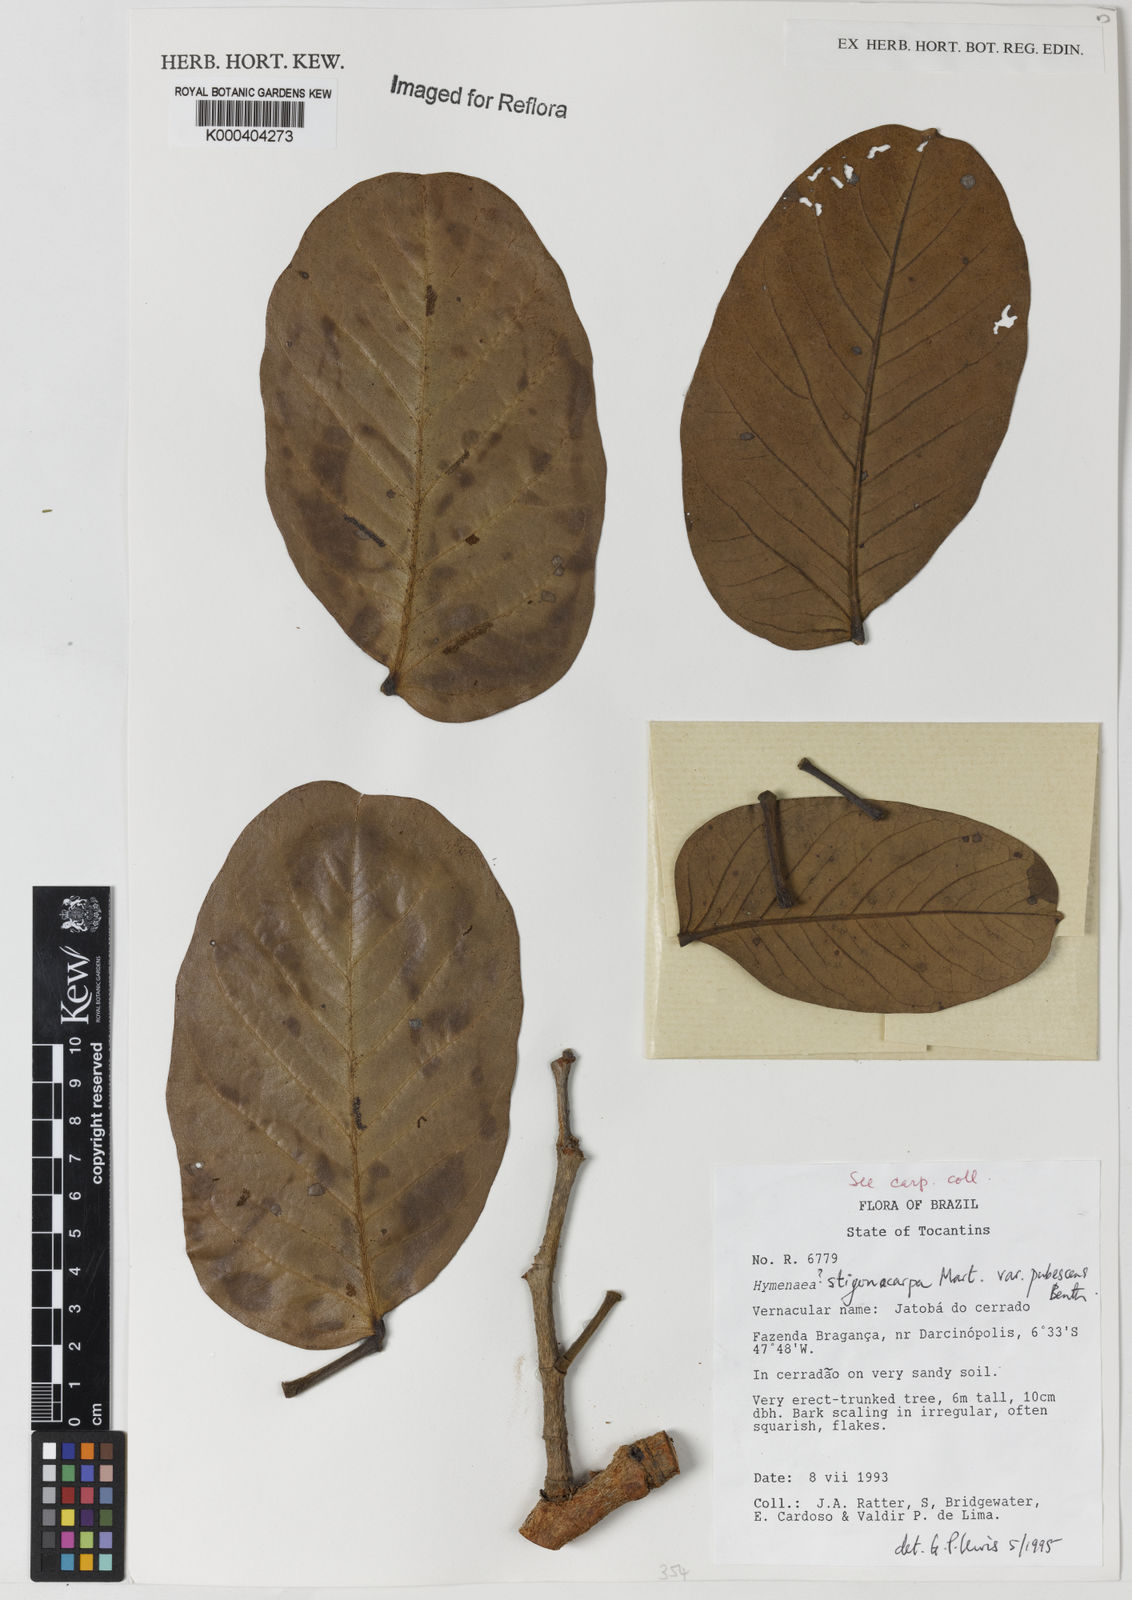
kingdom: Plantae
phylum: Tracheophyta
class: Magnoliopsida
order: Fabales
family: Fabaceae
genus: Hymenaea
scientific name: Hymenaea stigonocarpa
